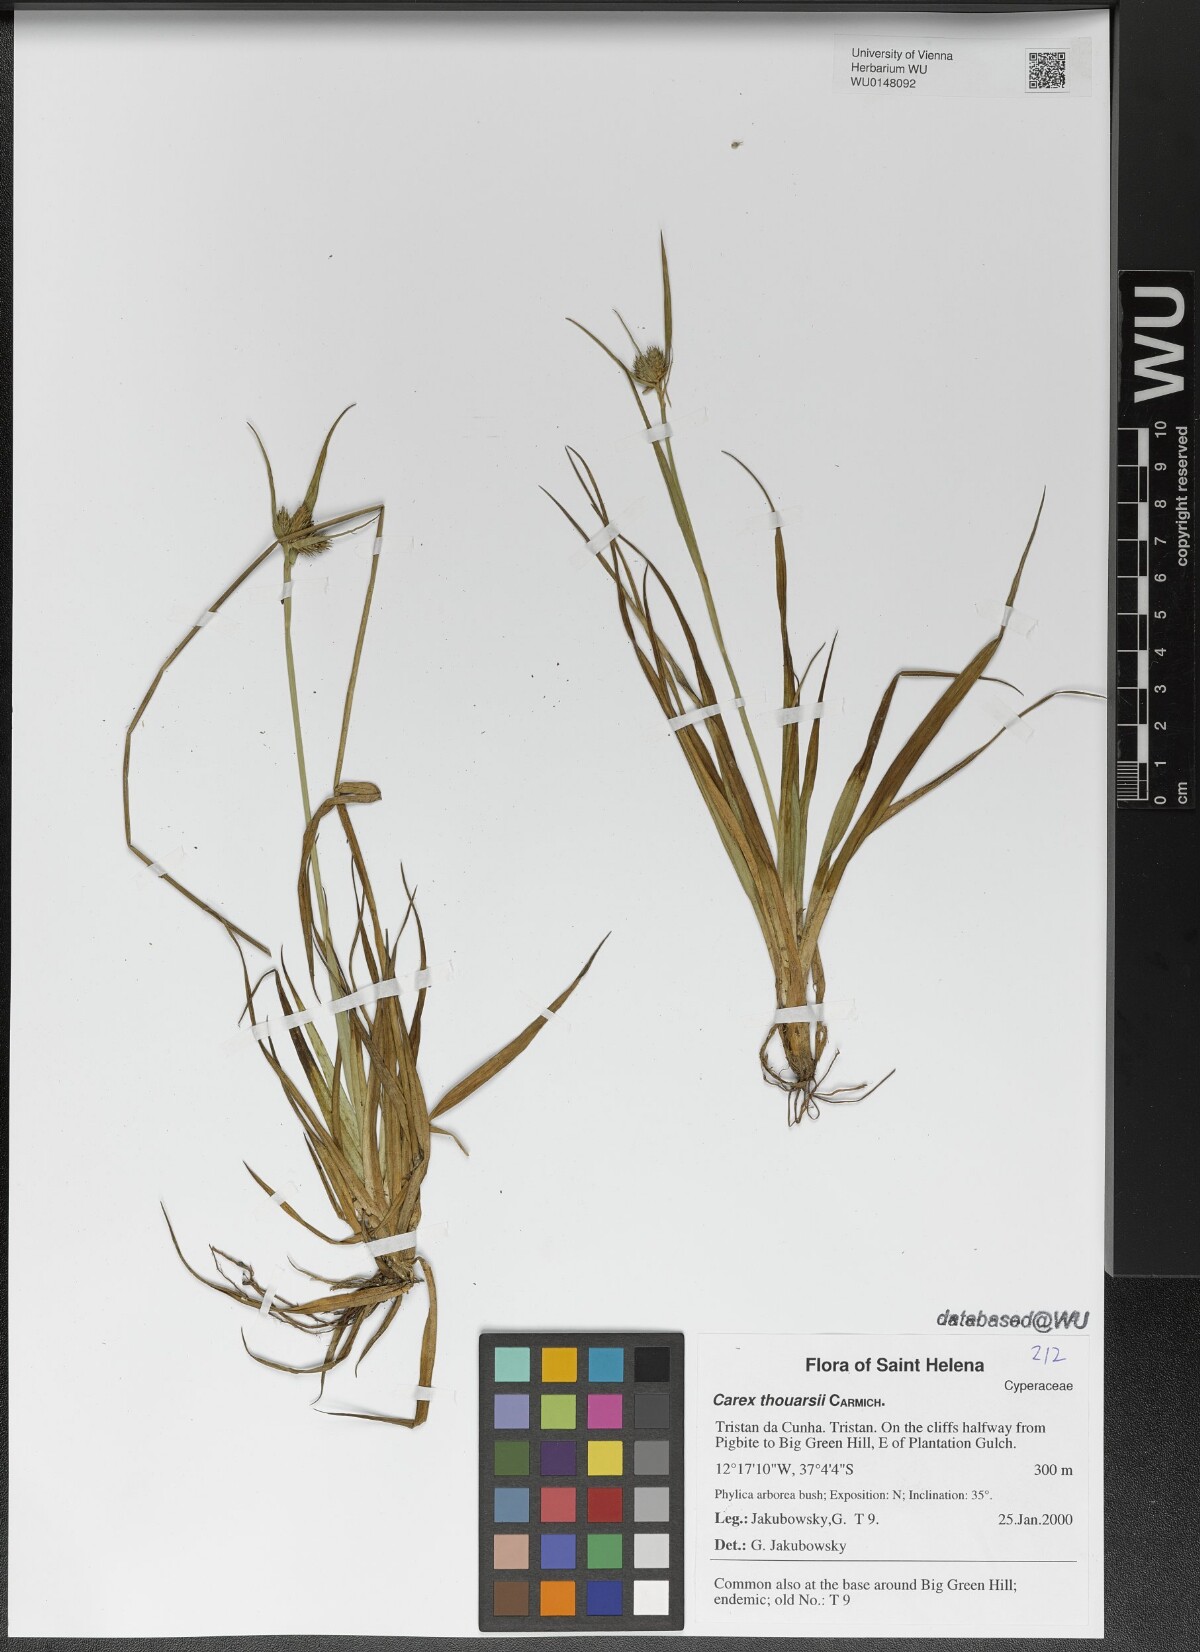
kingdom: Plantae
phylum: Tracheophyta
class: Liliopsida
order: Poales
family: Cyperaceae
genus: Carex
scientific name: Carex thouarsii
